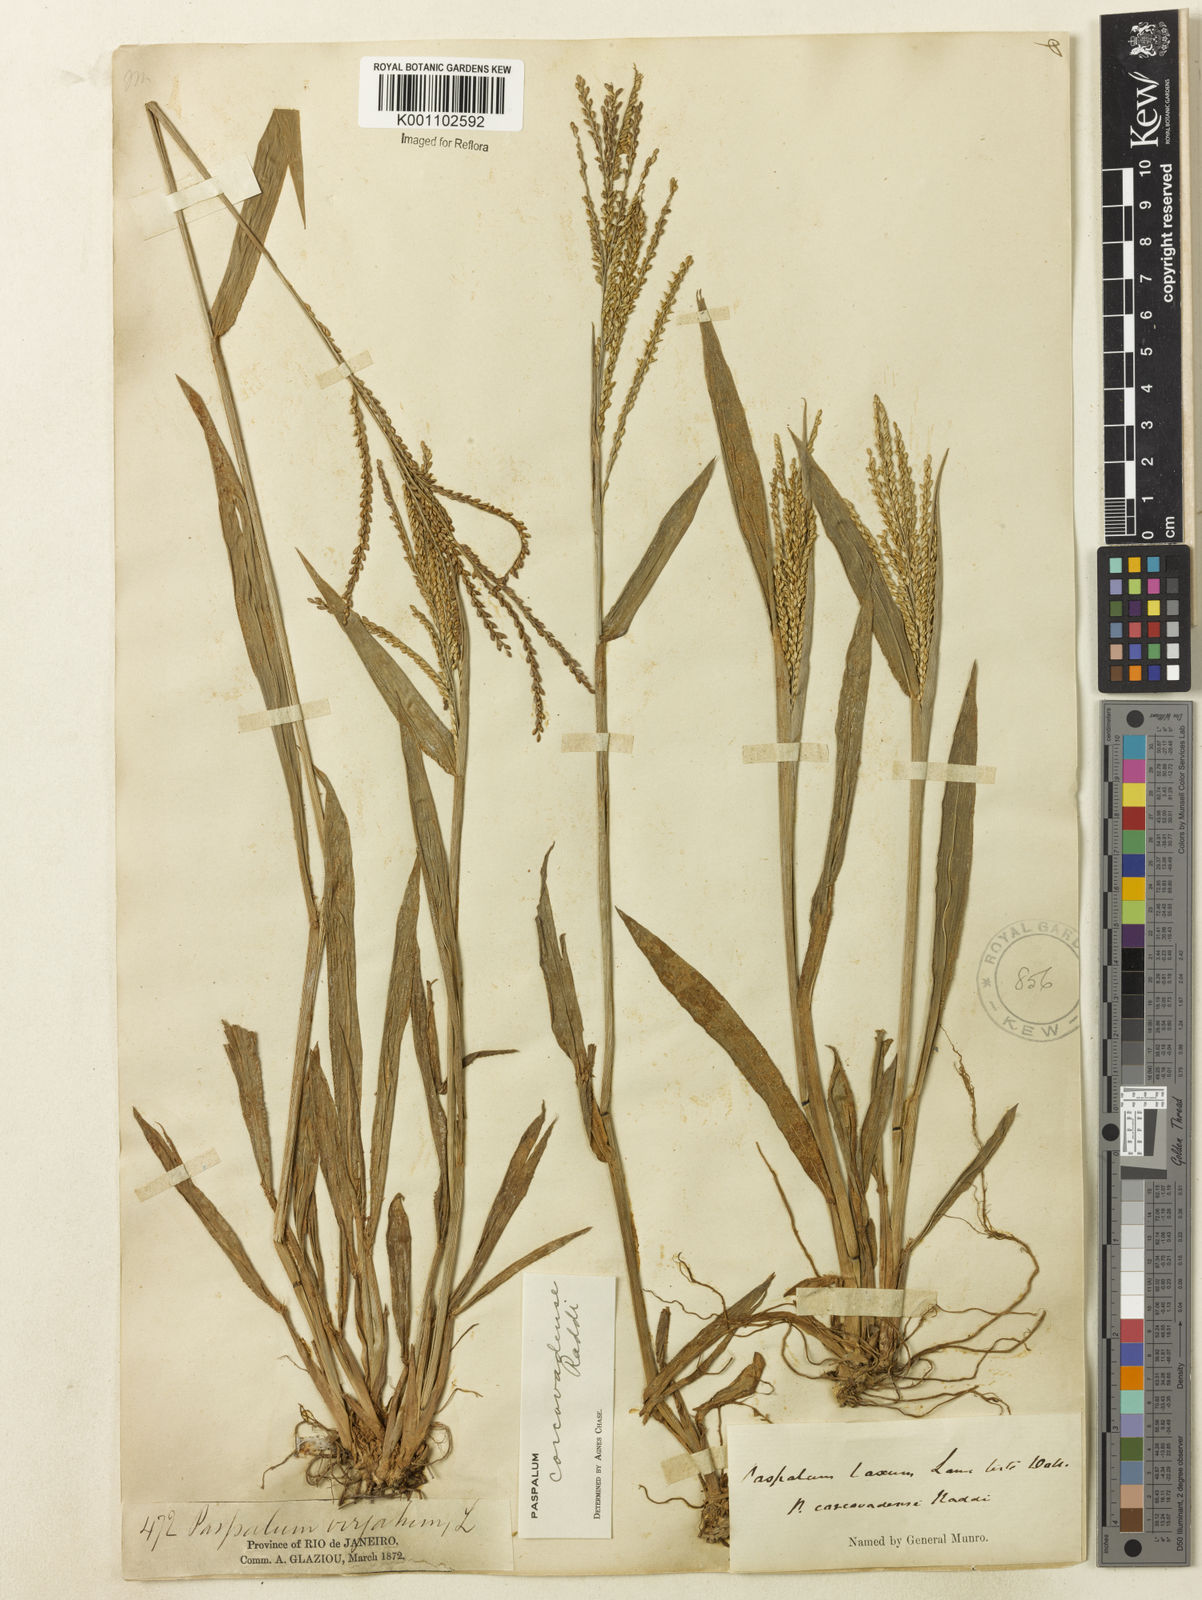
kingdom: Plantae
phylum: Tracheophyta
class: Liliopsida
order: Poales
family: Poaceae
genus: Paspalum
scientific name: Paspalum corcovadense
